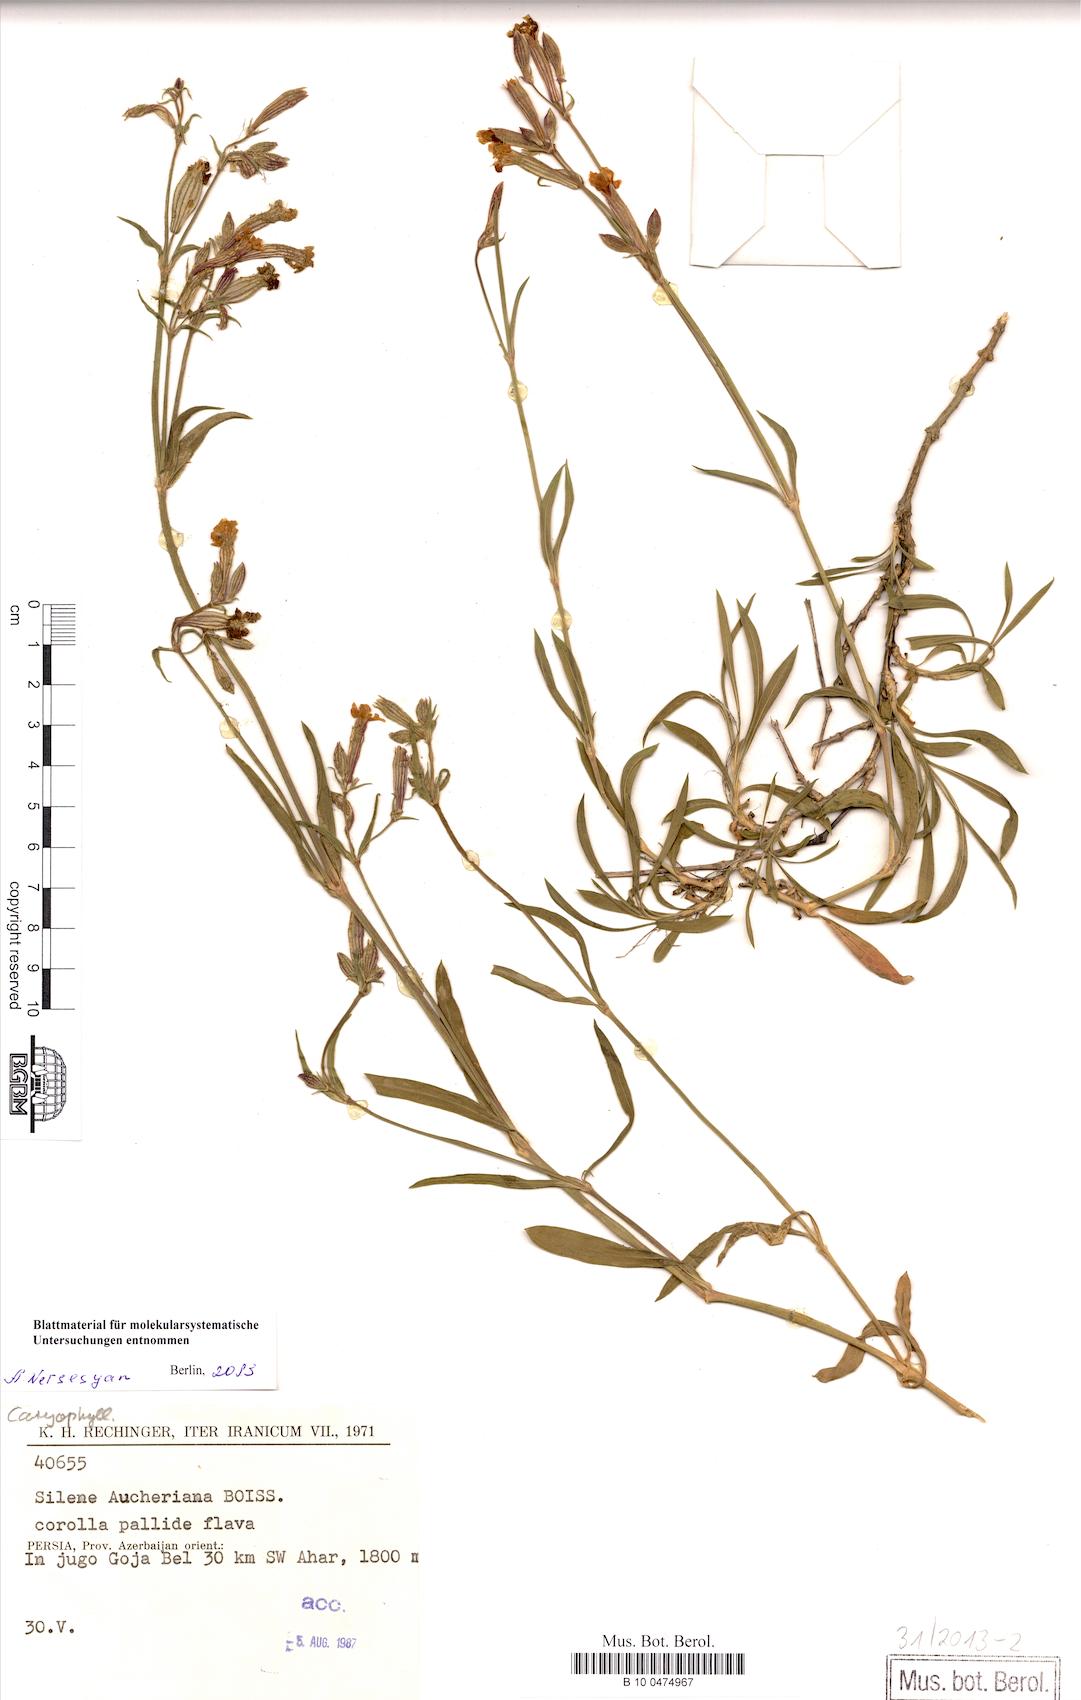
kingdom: Plantae
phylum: Tracheophyta
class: Magnoliopsida
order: Caryophyllales
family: Caryophyllaceae
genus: Silene
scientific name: Silene aucheriana
